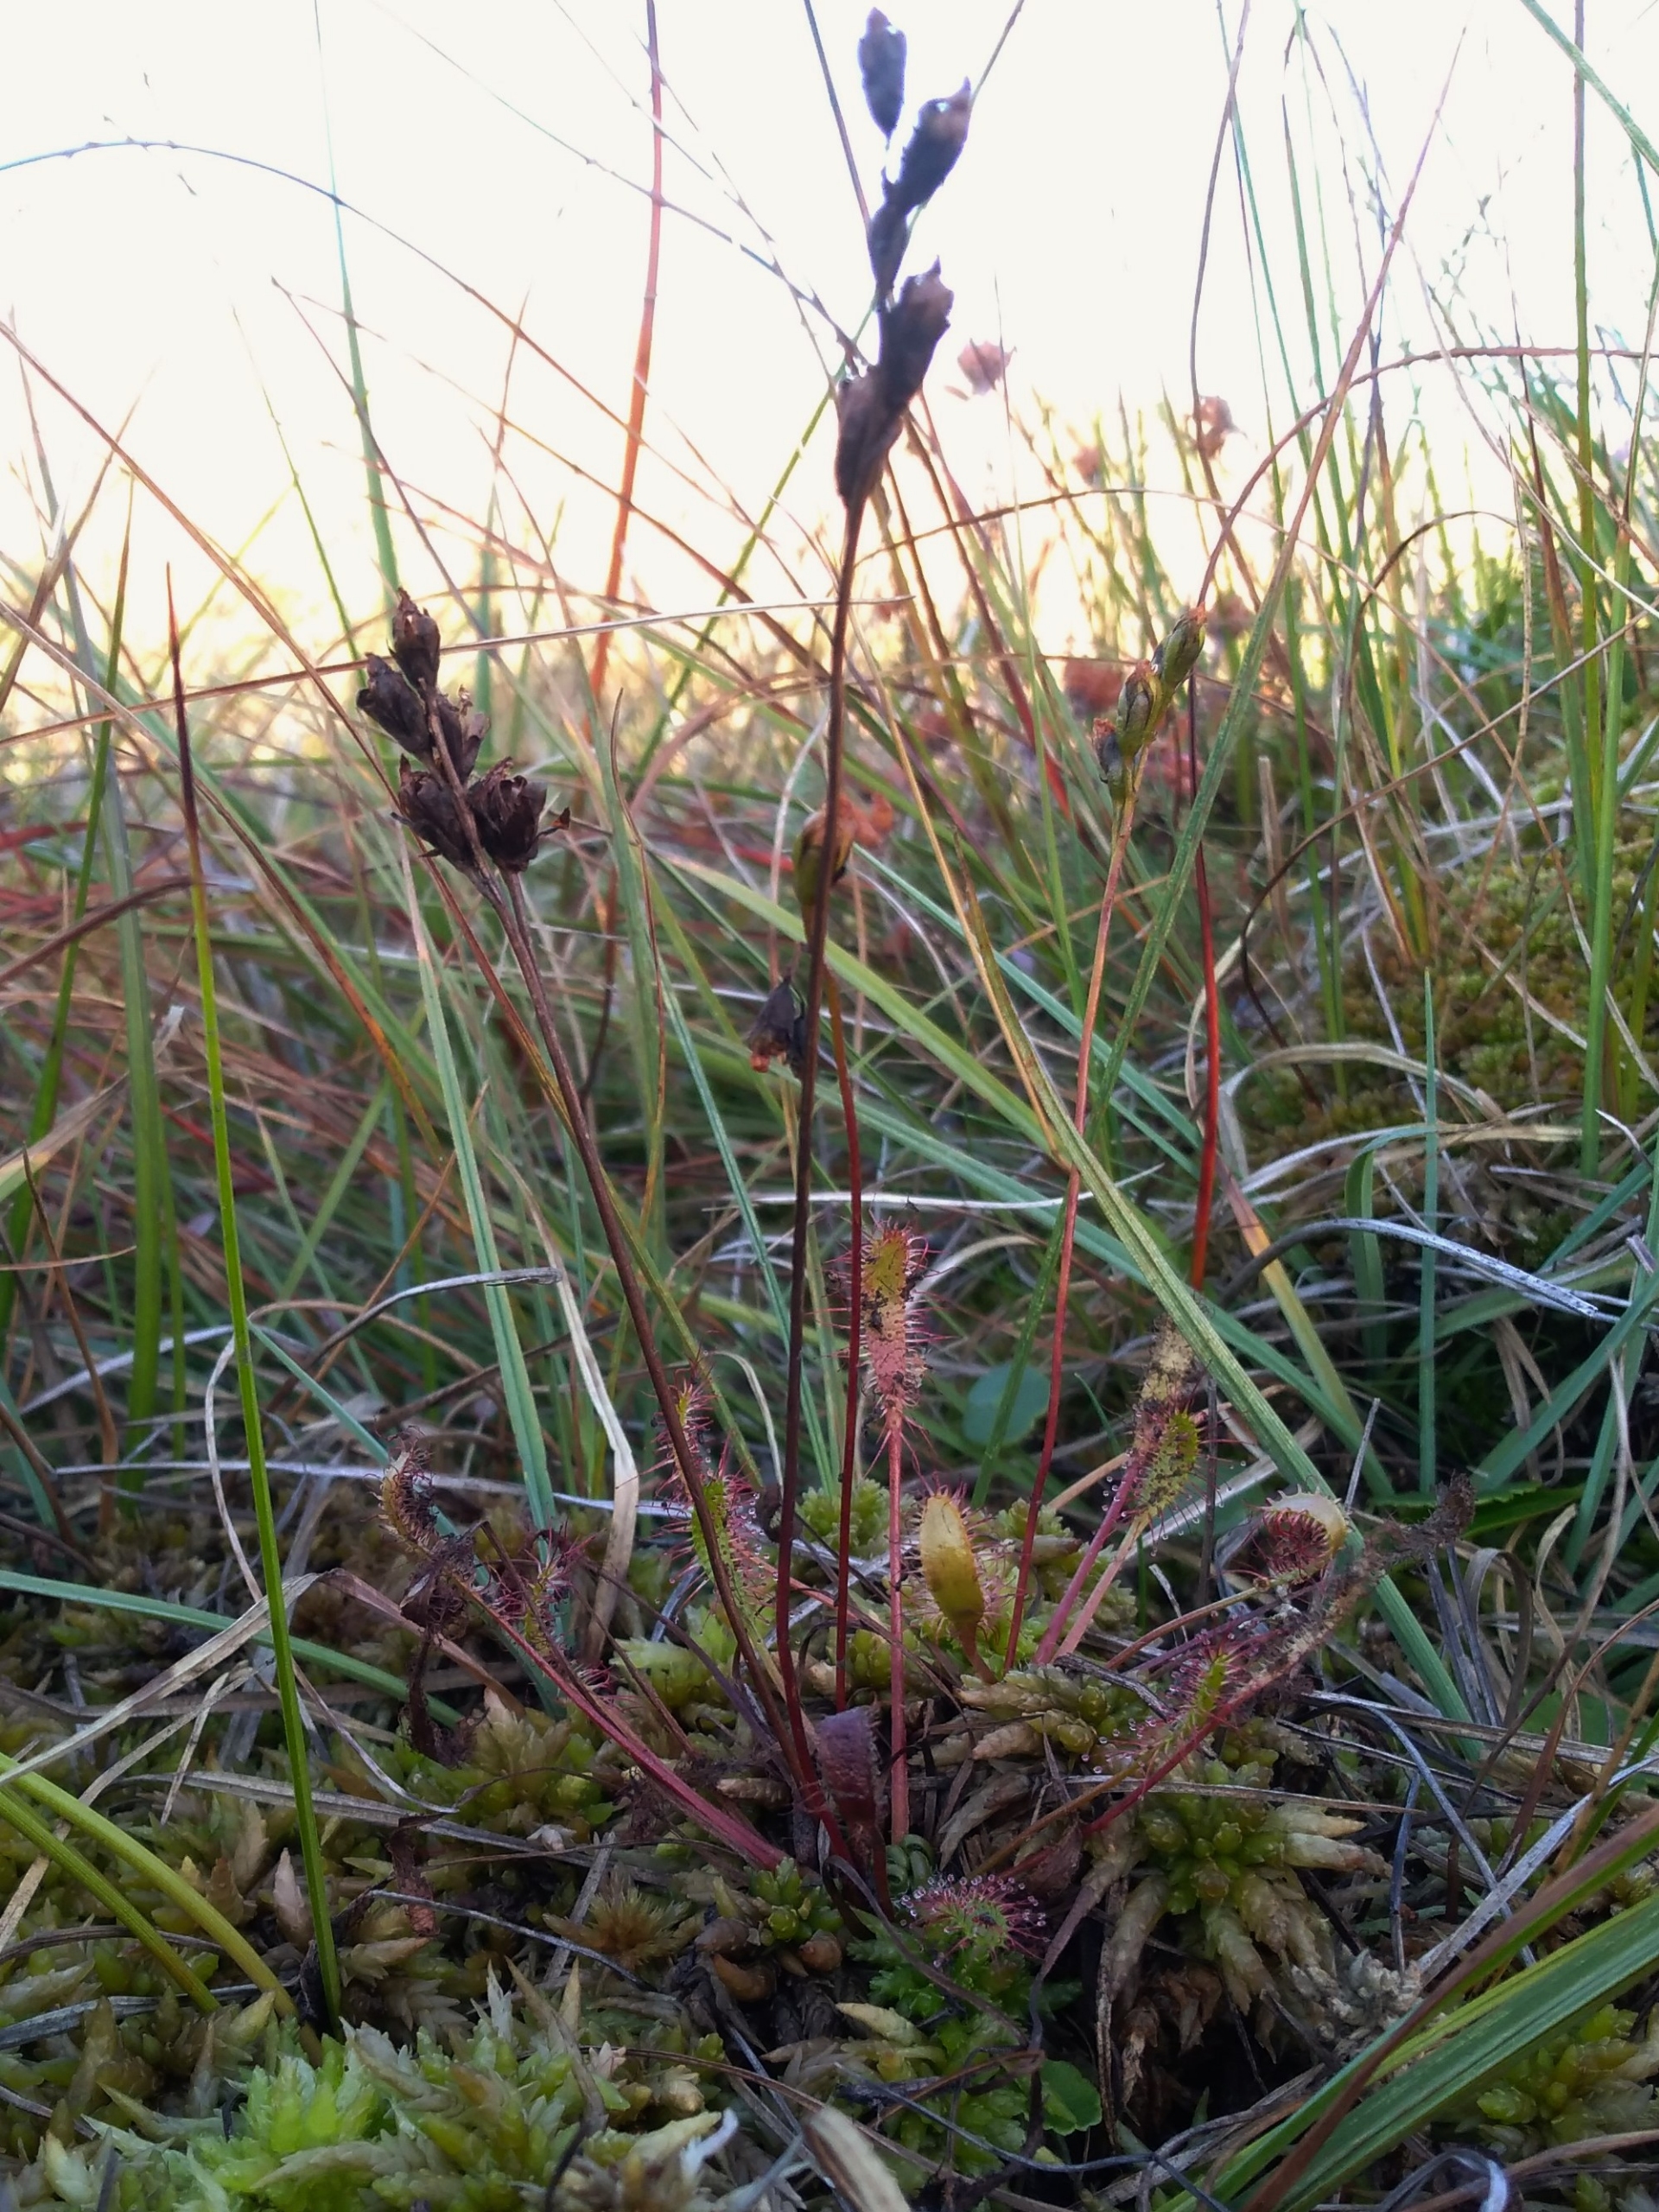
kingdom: Plantae
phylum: Tracheophyta
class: Magnoliopsida
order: Caryophyllales
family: Droseraceae
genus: Drosera
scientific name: Drosera anglica
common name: Langbladet soldug
